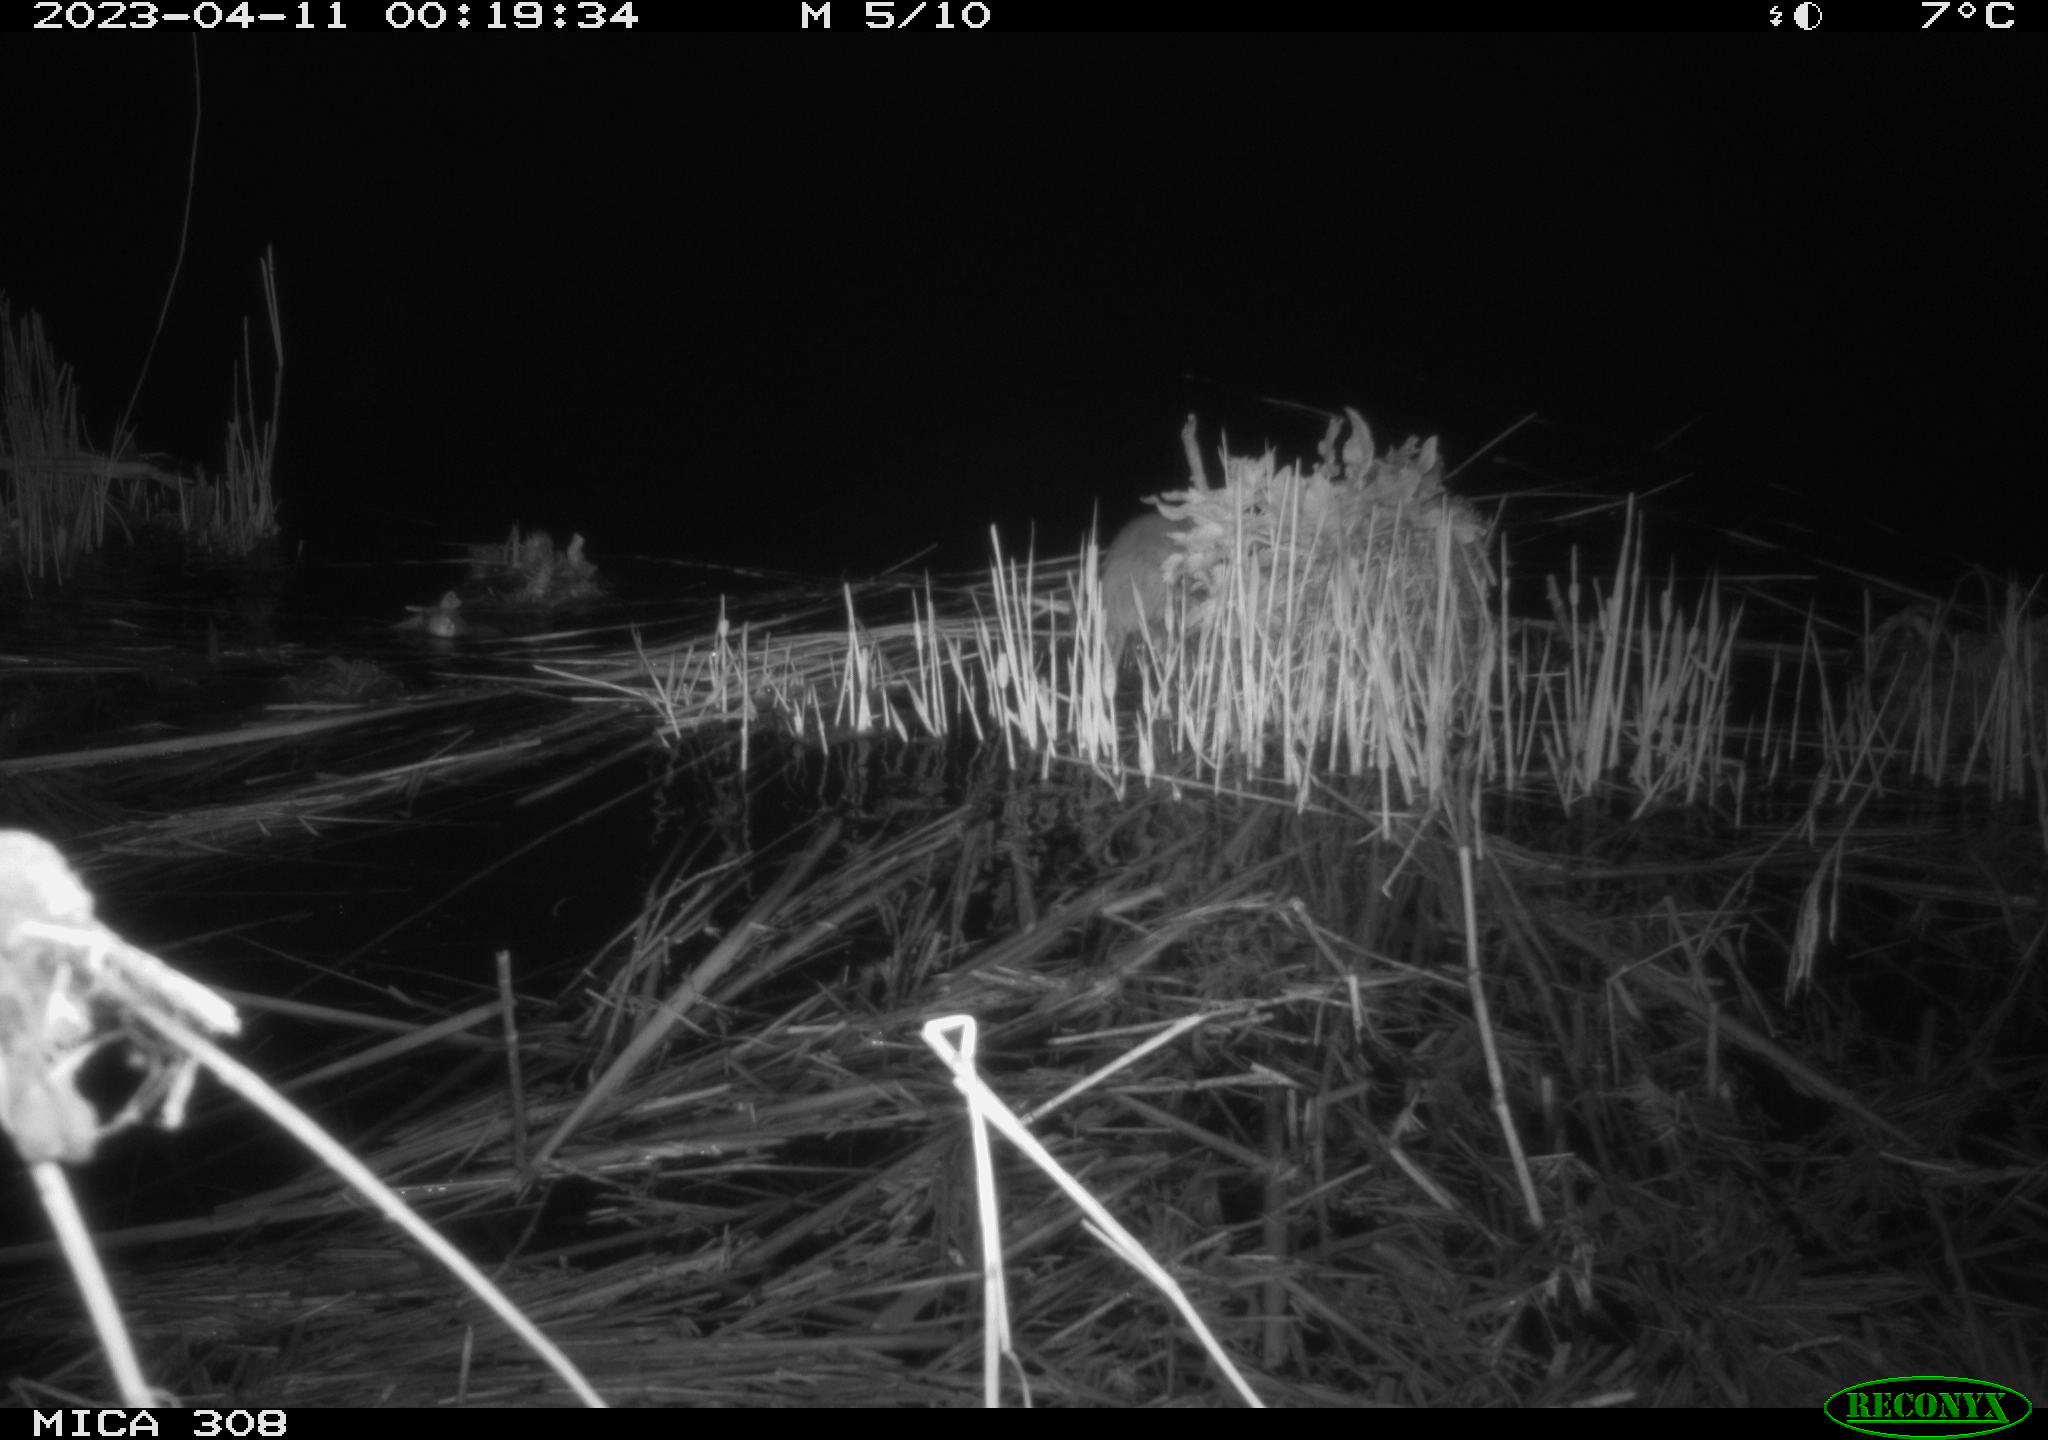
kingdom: Animalia
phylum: Chordata
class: Mammalia
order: Rodentia
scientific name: Rodentia
